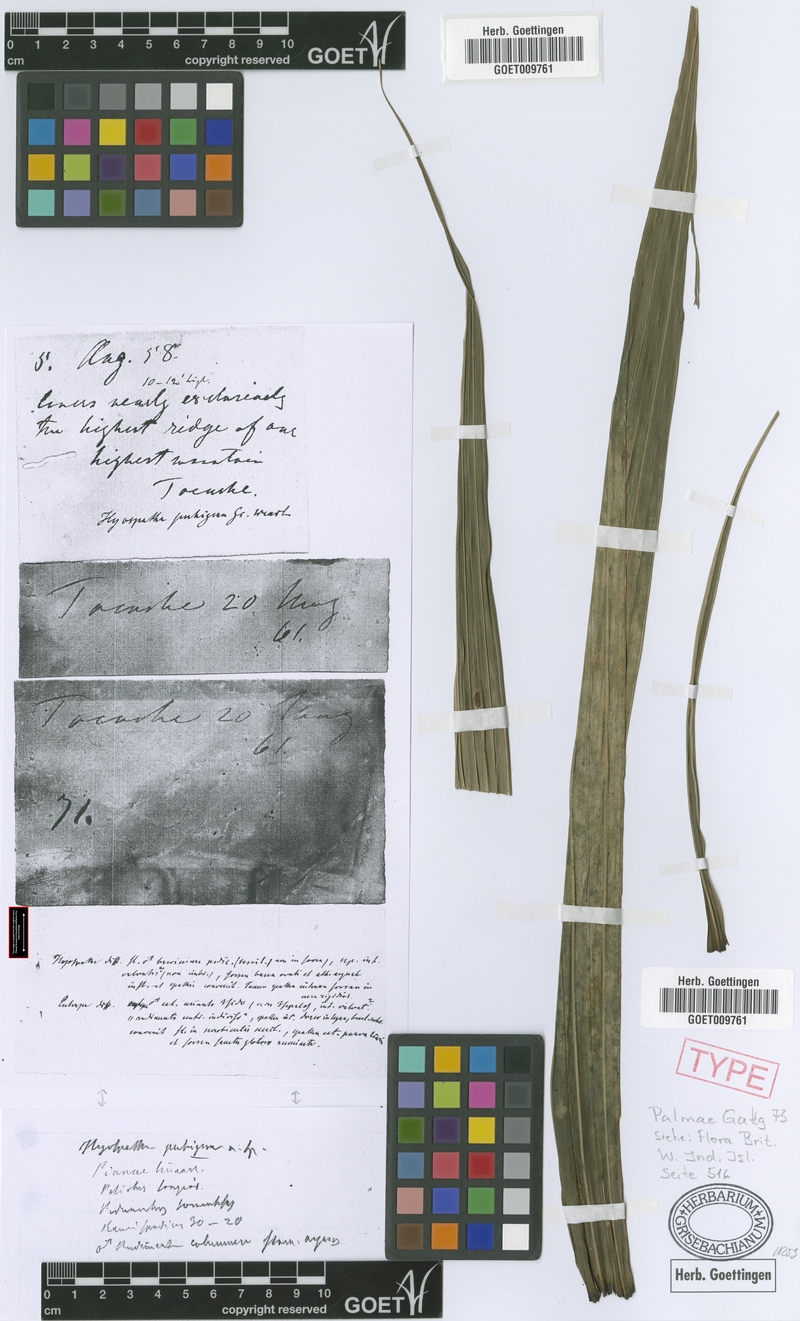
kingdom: Plantae
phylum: Tracheophyta
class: Liliopsida
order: Arecales
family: Arecaceae
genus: Prestoea
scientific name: Prestoea pubigera
